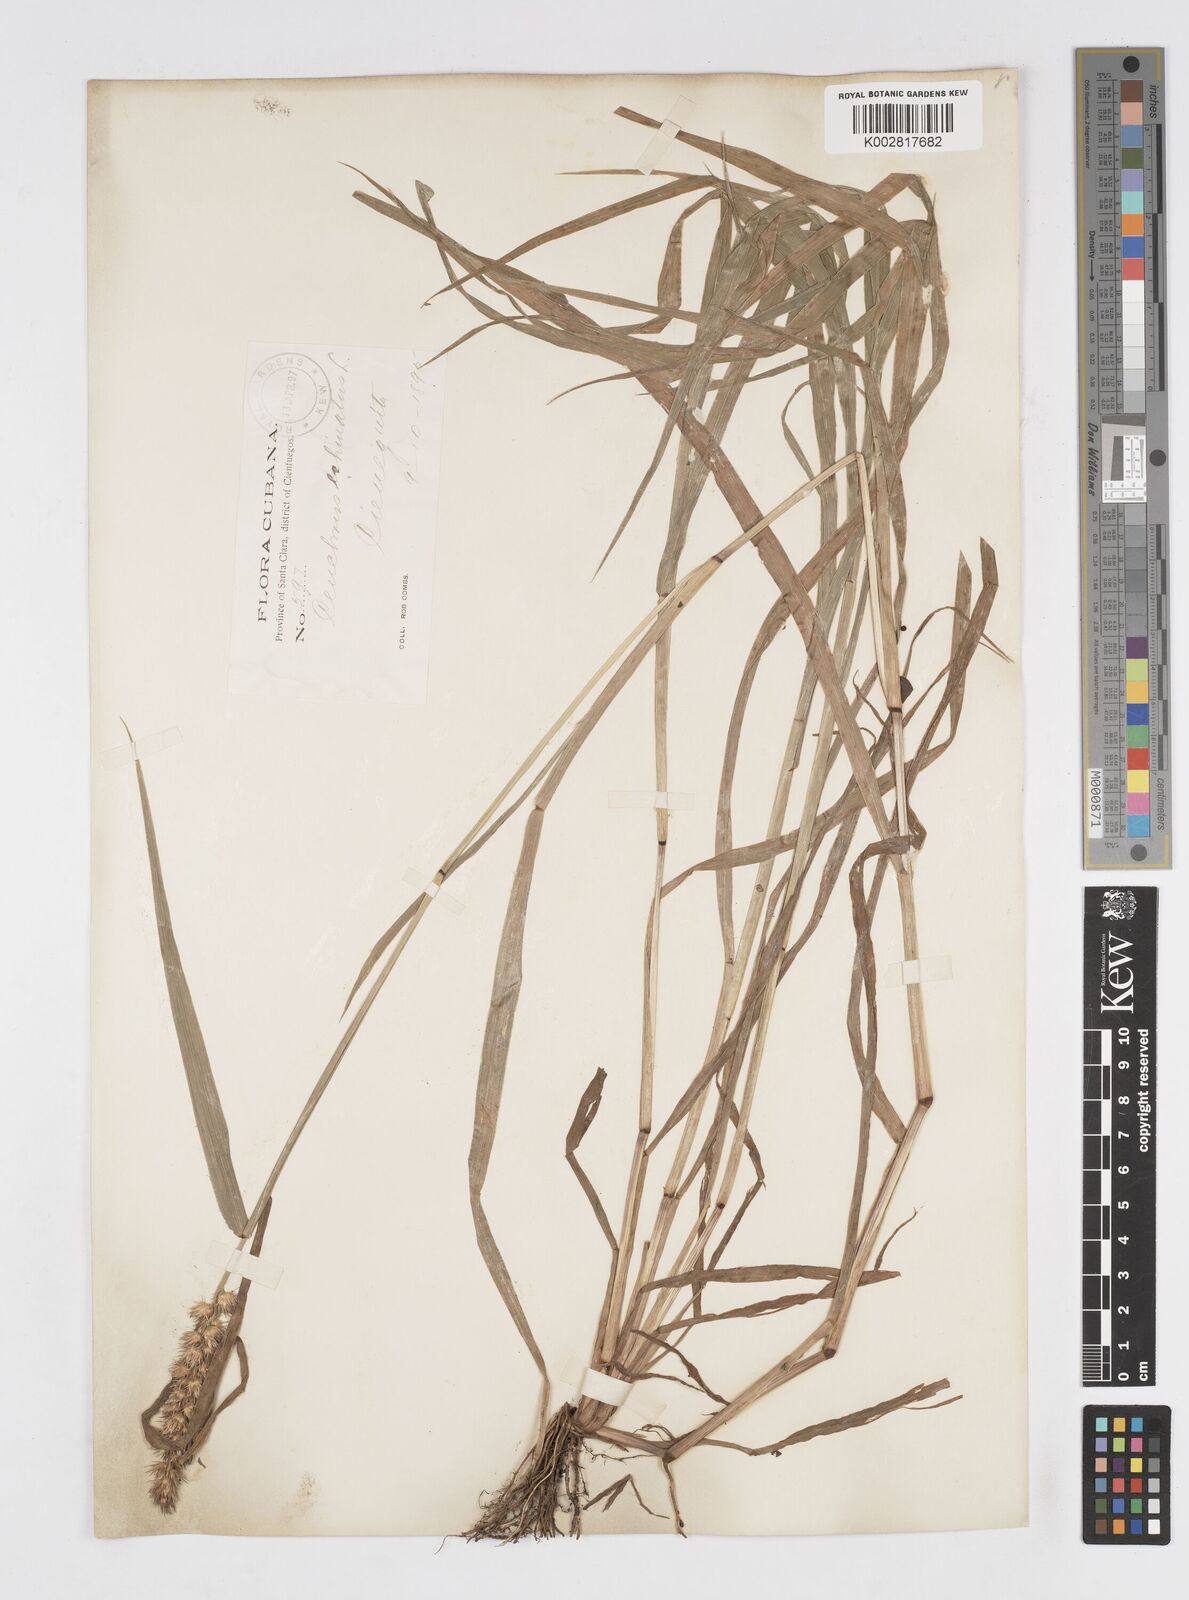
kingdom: Plantae
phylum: Tracheophyta
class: Liliopsida
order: Poales
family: Poaceae
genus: Cenchrus
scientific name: Cenchrus
